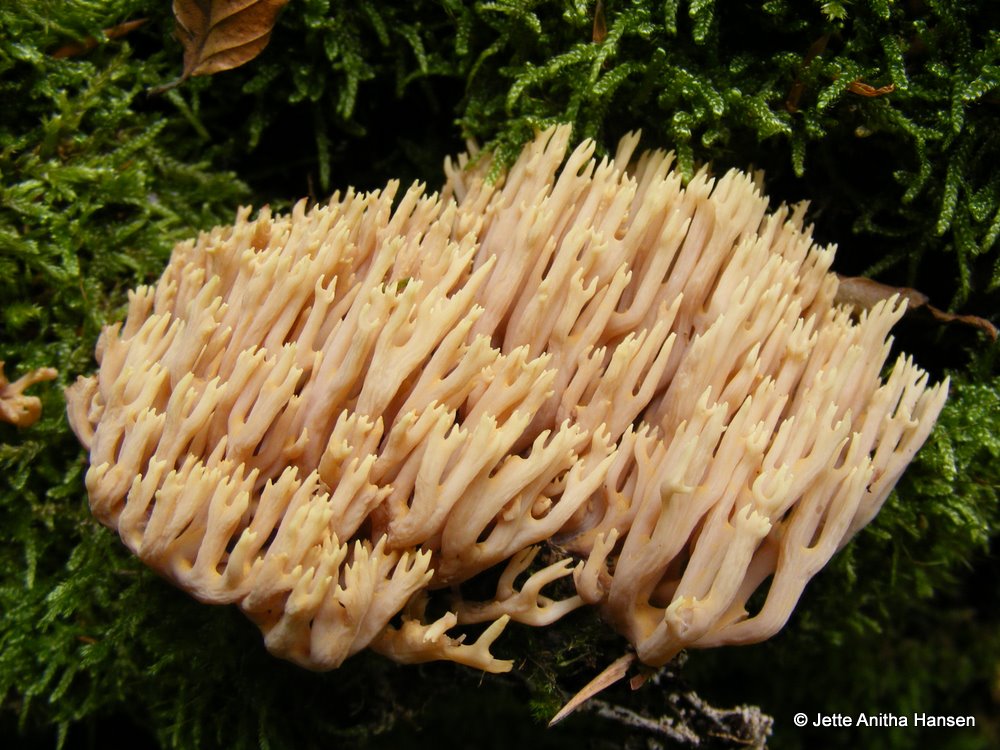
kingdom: Fungi
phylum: Basidiomycota
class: Agaricomycetes
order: Gomphales
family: Gomphaceae
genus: Ramaria
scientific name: Ramaria stricta
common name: rank koralsvamp
